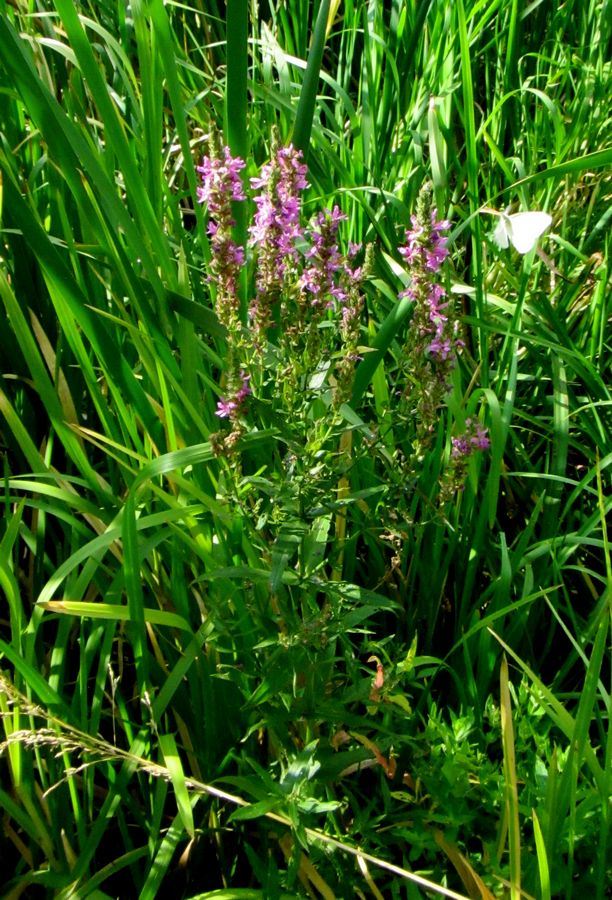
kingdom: Plantae
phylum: Tracheophyta
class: Magnoliopsida
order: Myrtales
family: Lythraceae
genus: Lythrum
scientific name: Lythrum salicaria
